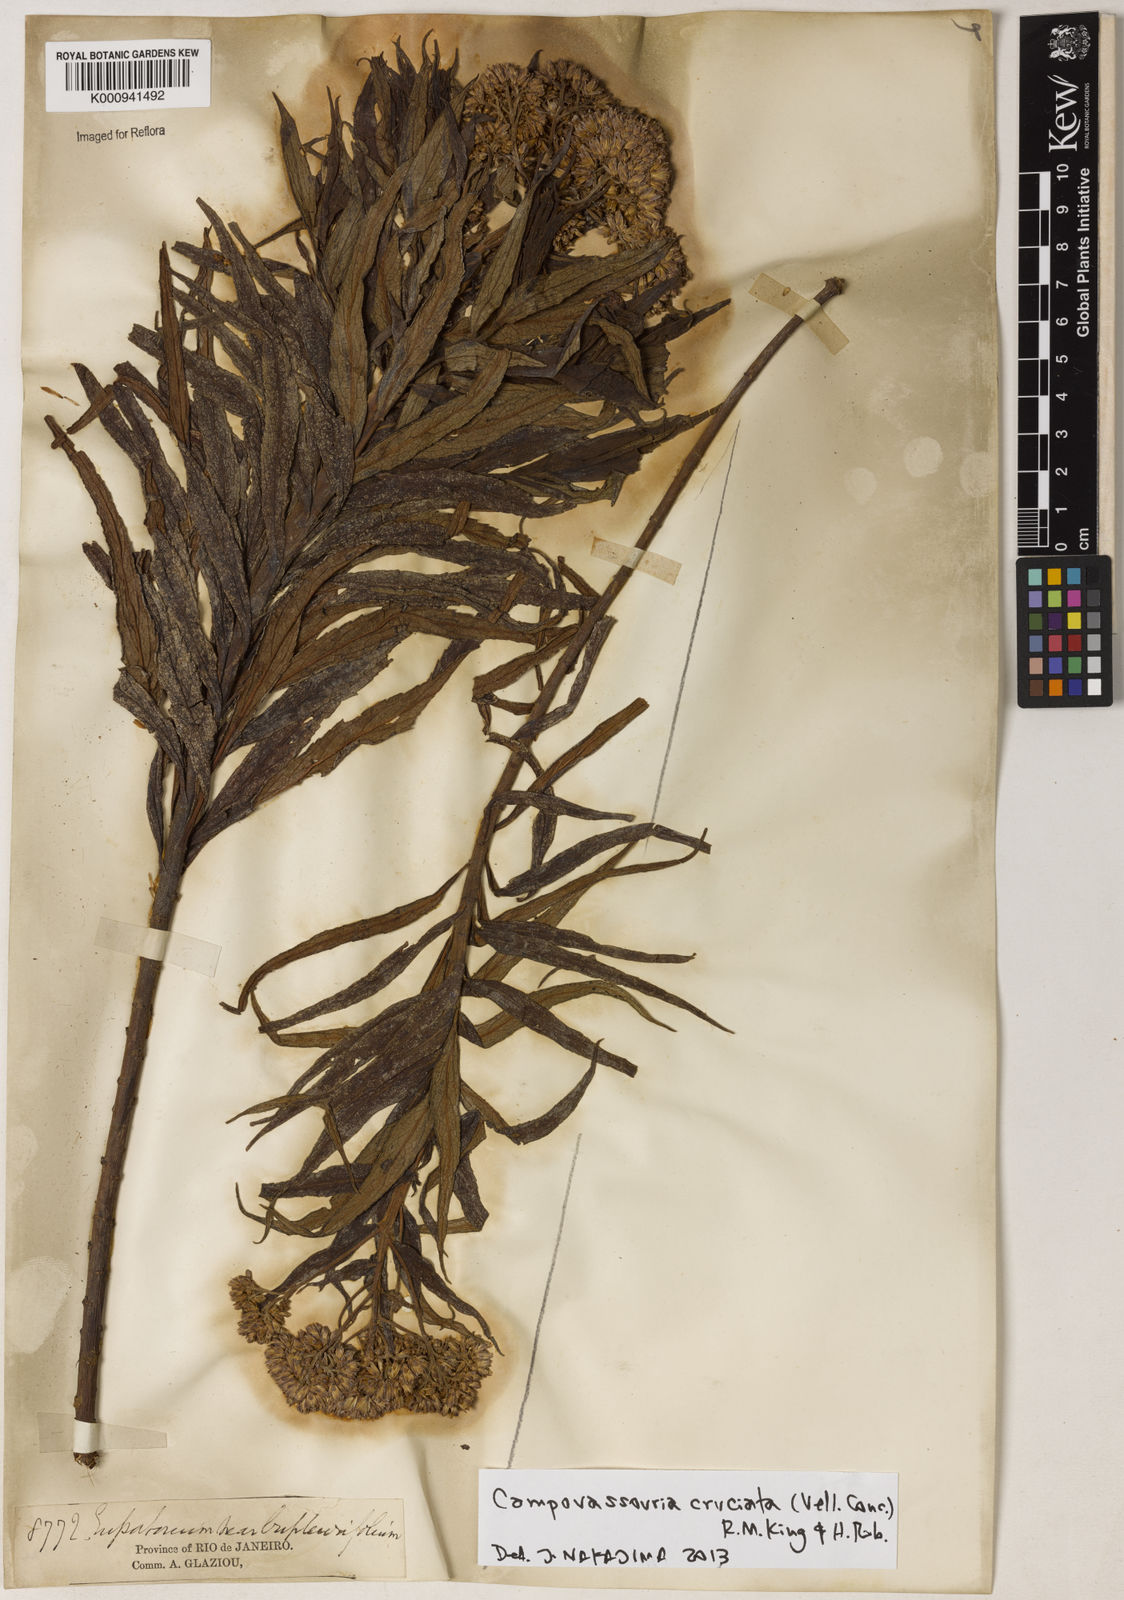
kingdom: Plantae
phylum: Tracheophyta
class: Magnoliopsida
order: Asterales
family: Asteraceae
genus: Campovassouria
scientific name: Campovassouria cruciata
